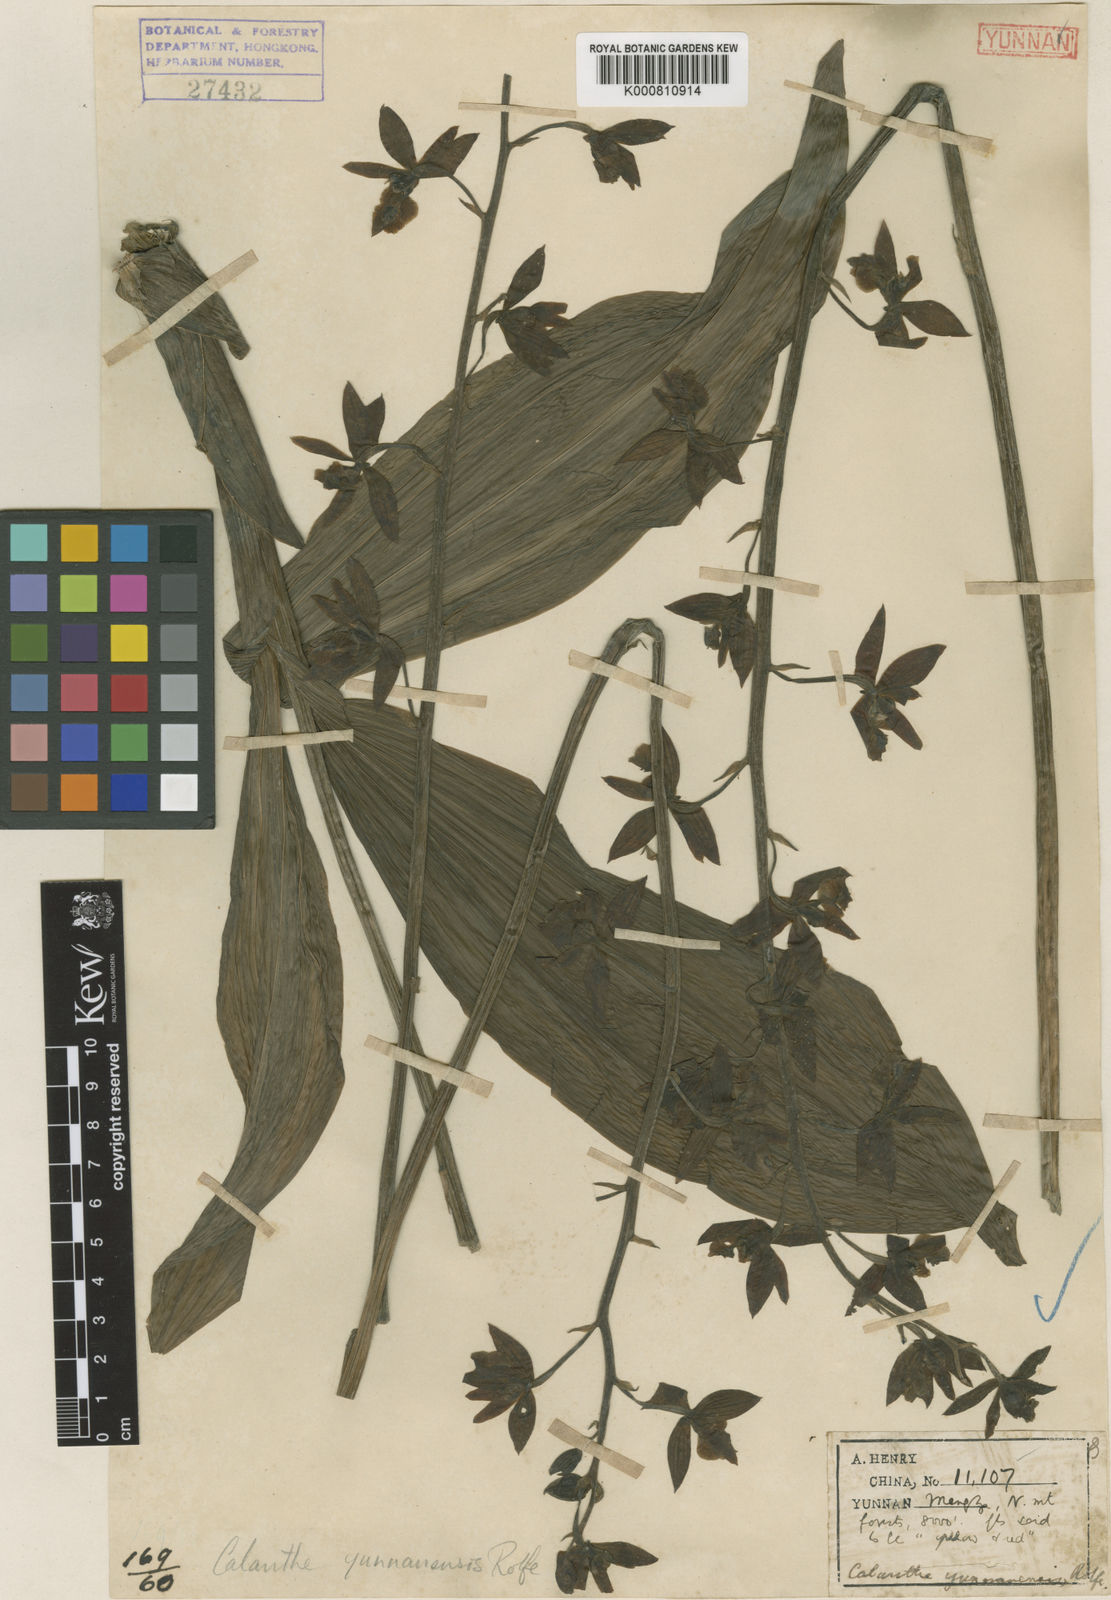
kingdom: Plantae
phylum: Tracheophyta
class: Liliopsida
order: Asparagales
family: Orchidaceae
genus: Calanthe
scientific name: Calanthe lamellosa
